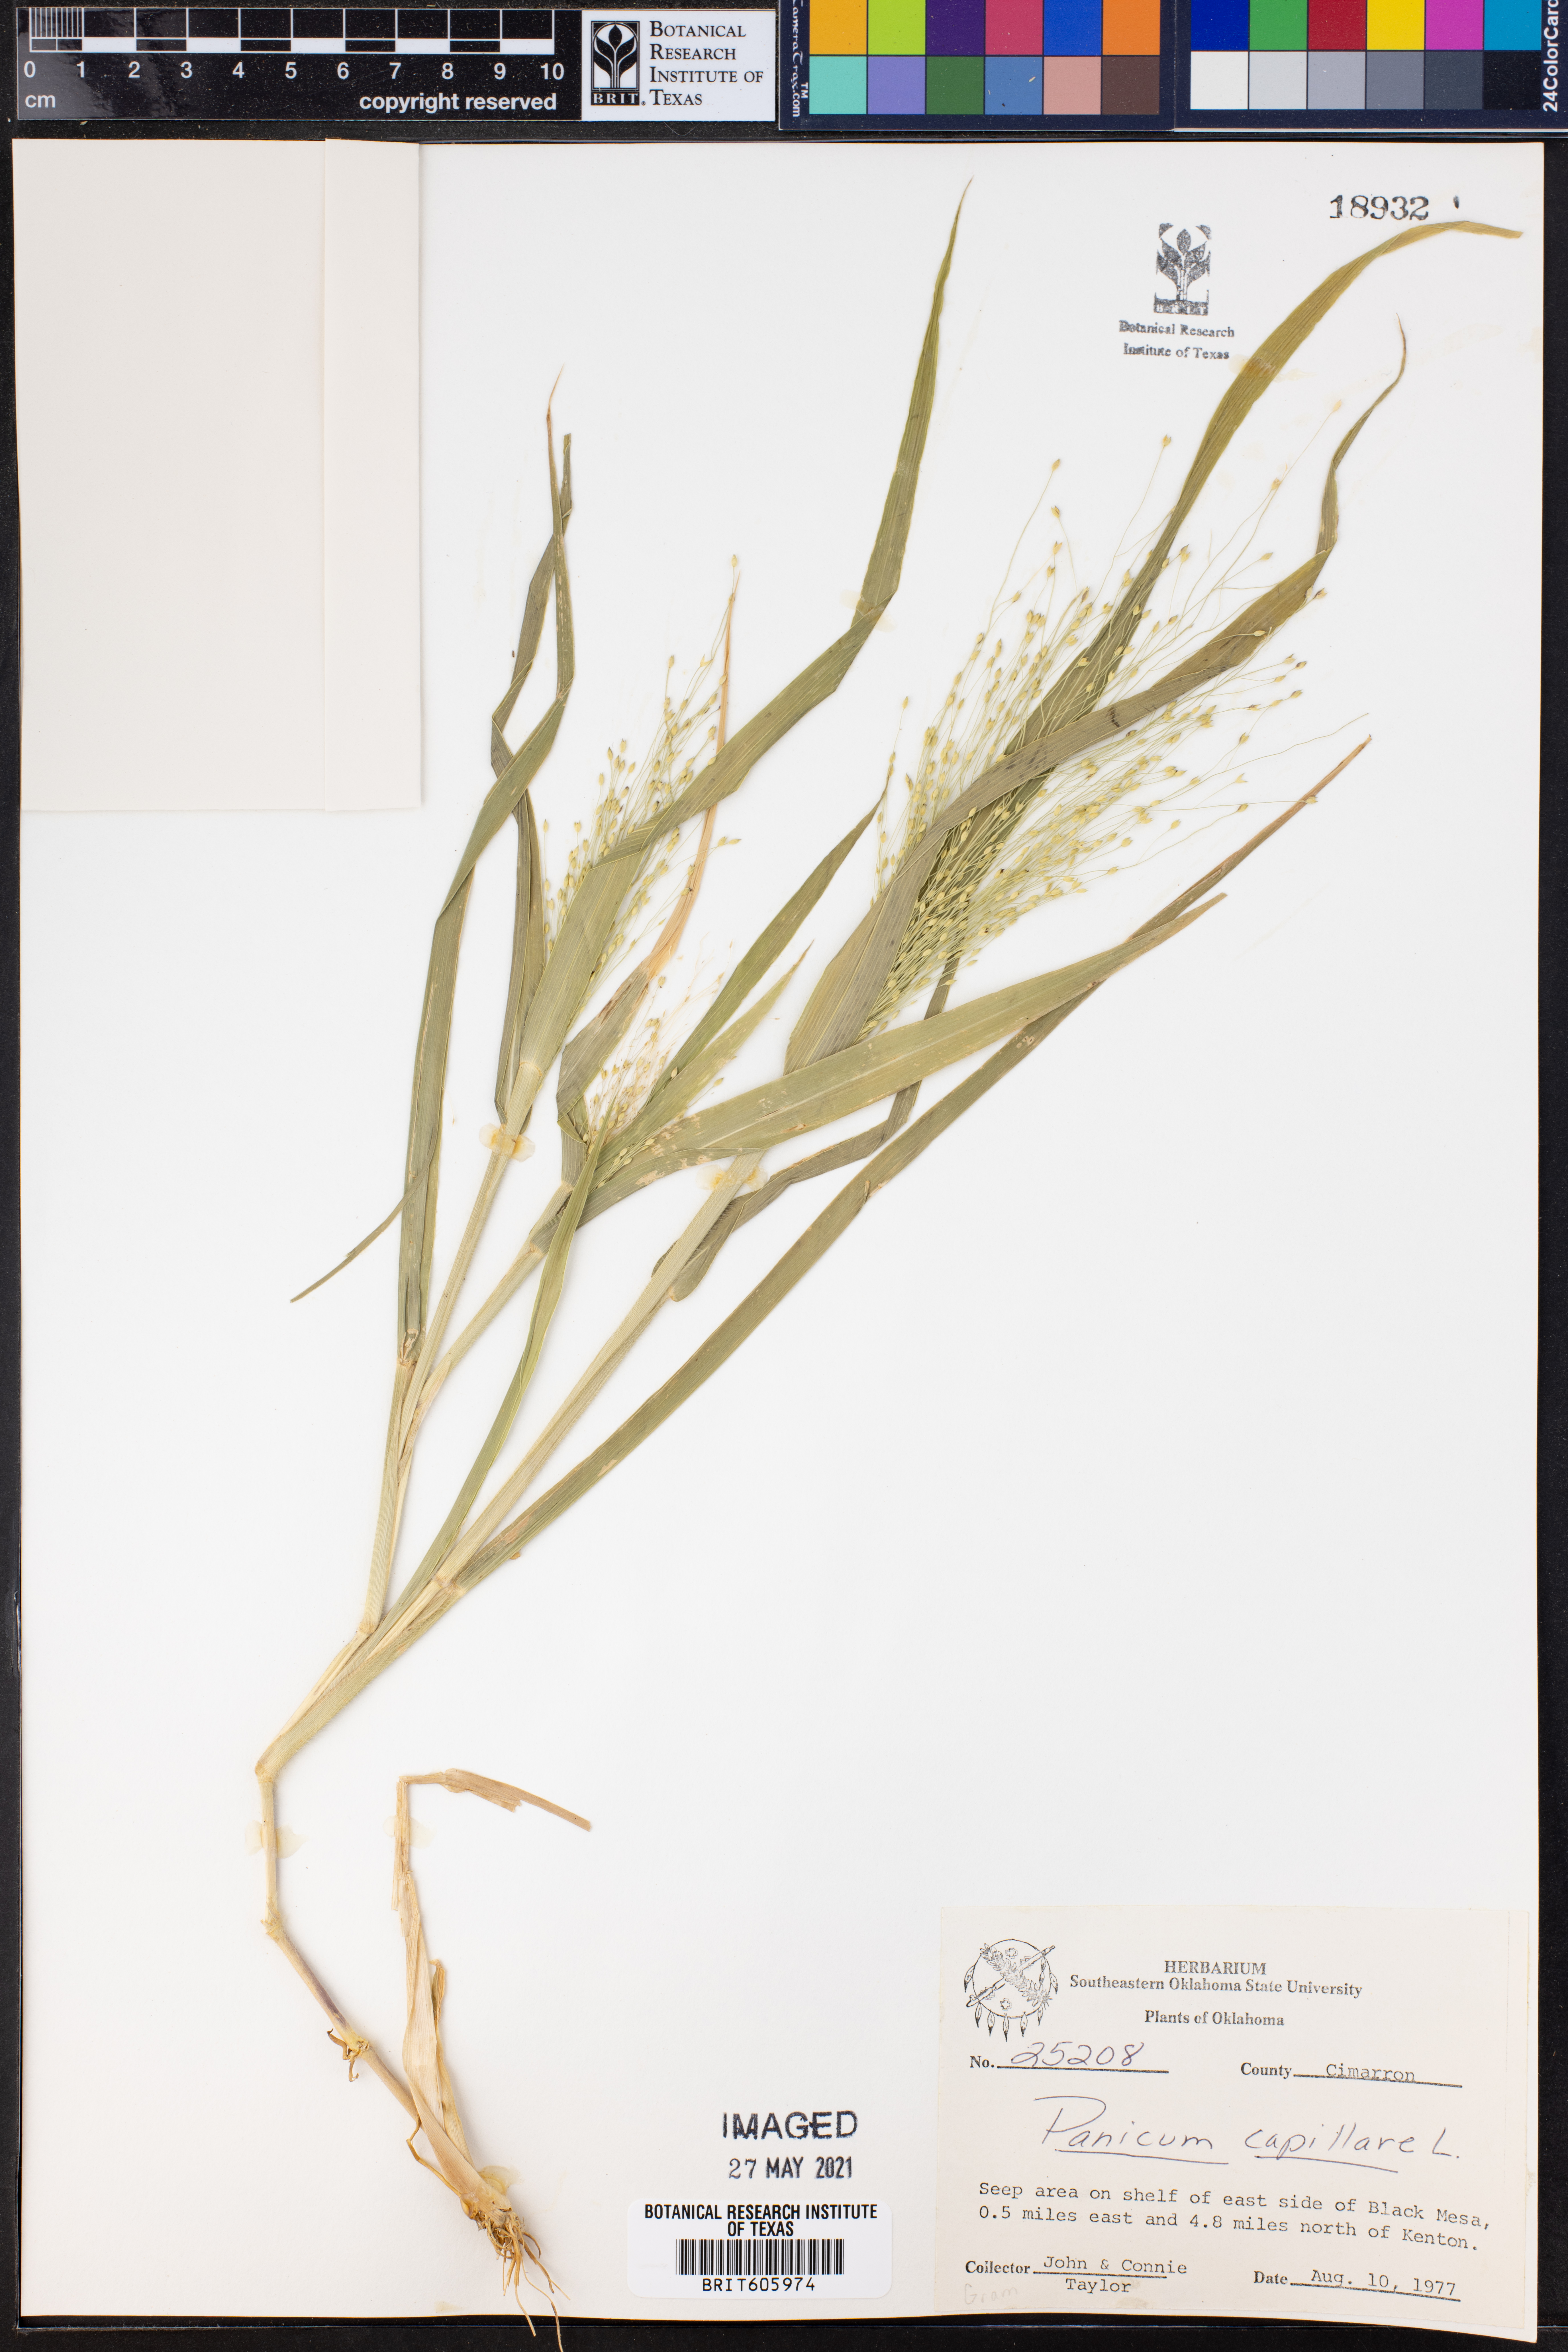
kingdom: Plantae
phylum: Tracheophyta
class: Liliopsida
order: Poales
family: Poaceae
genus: Panicum
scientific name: Panicum capillare
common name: Witch-grass
